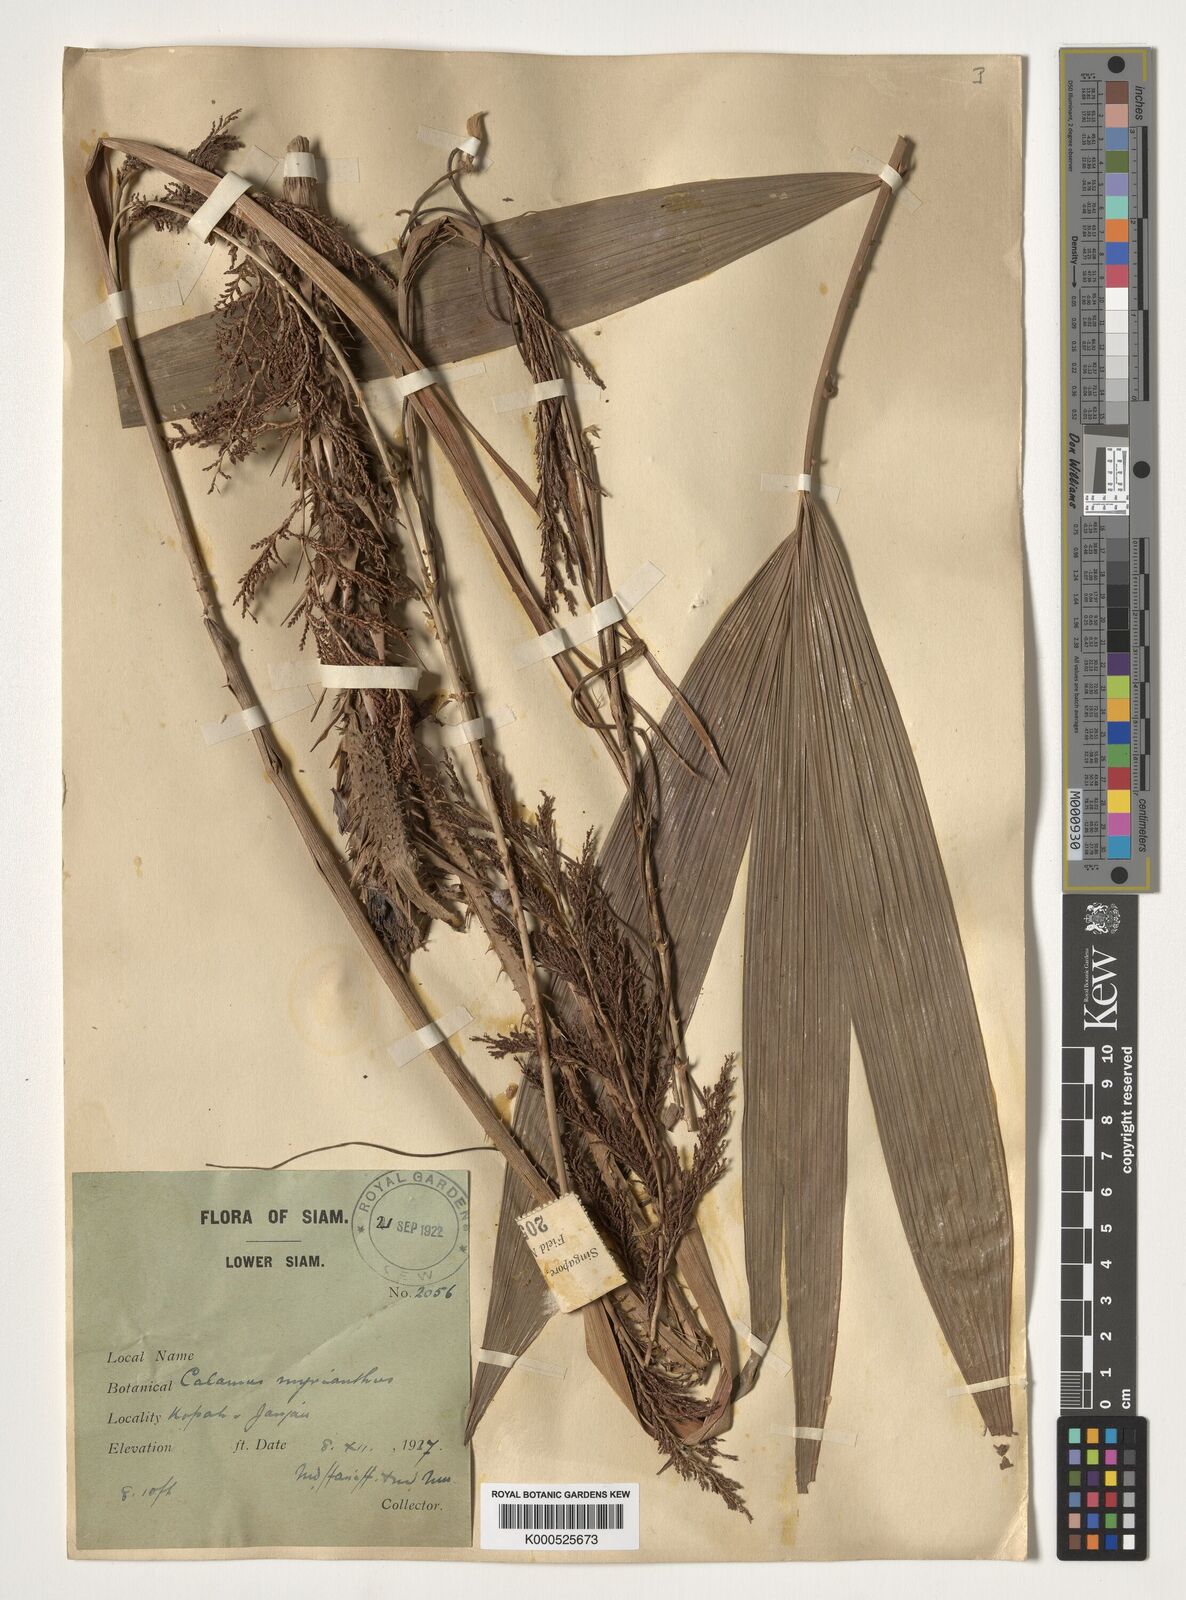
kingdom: Plantae
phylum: Tracheophyta
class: Liliopsida
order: Arecales
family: Arecaceae
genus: Calamus
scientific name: Calamus myrianthus
